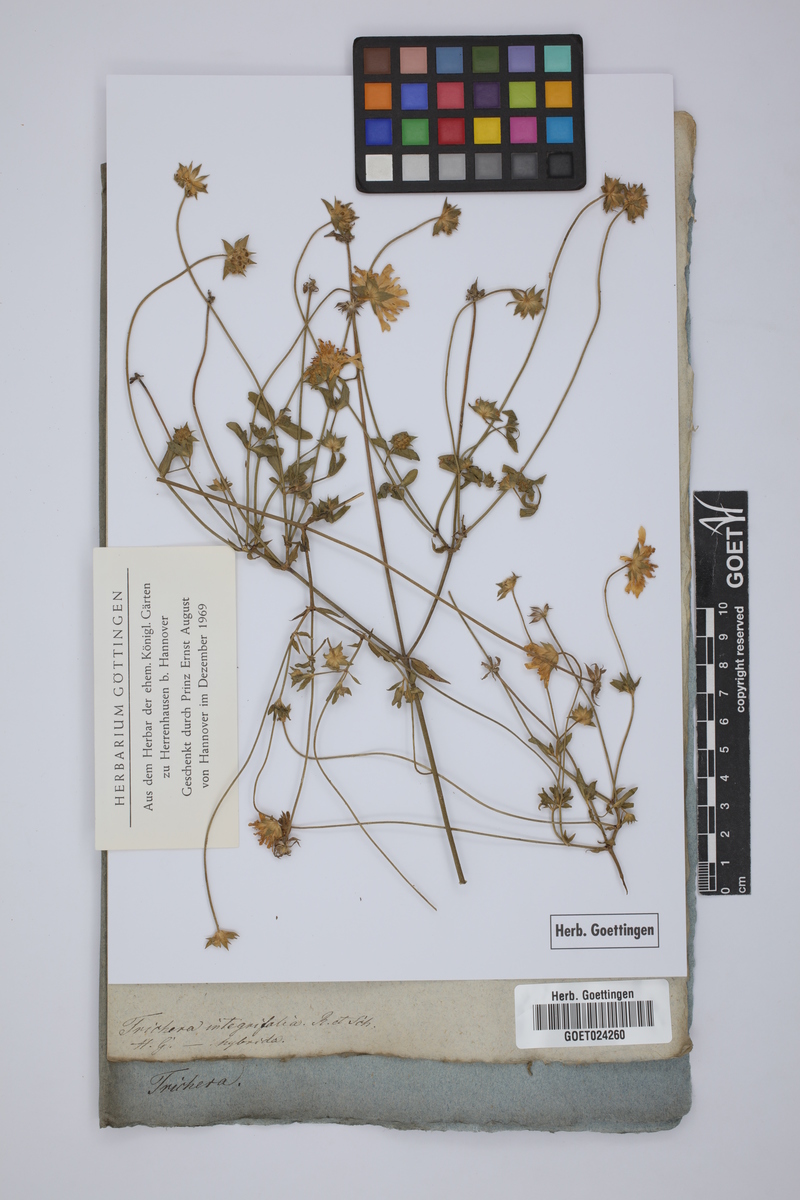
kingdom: Plantae
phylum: Tracheophyta
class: Magnoliopsida
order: Dipsacales
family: Caprifoliaceae
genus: Knautia
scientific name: Knautia integrifolia
